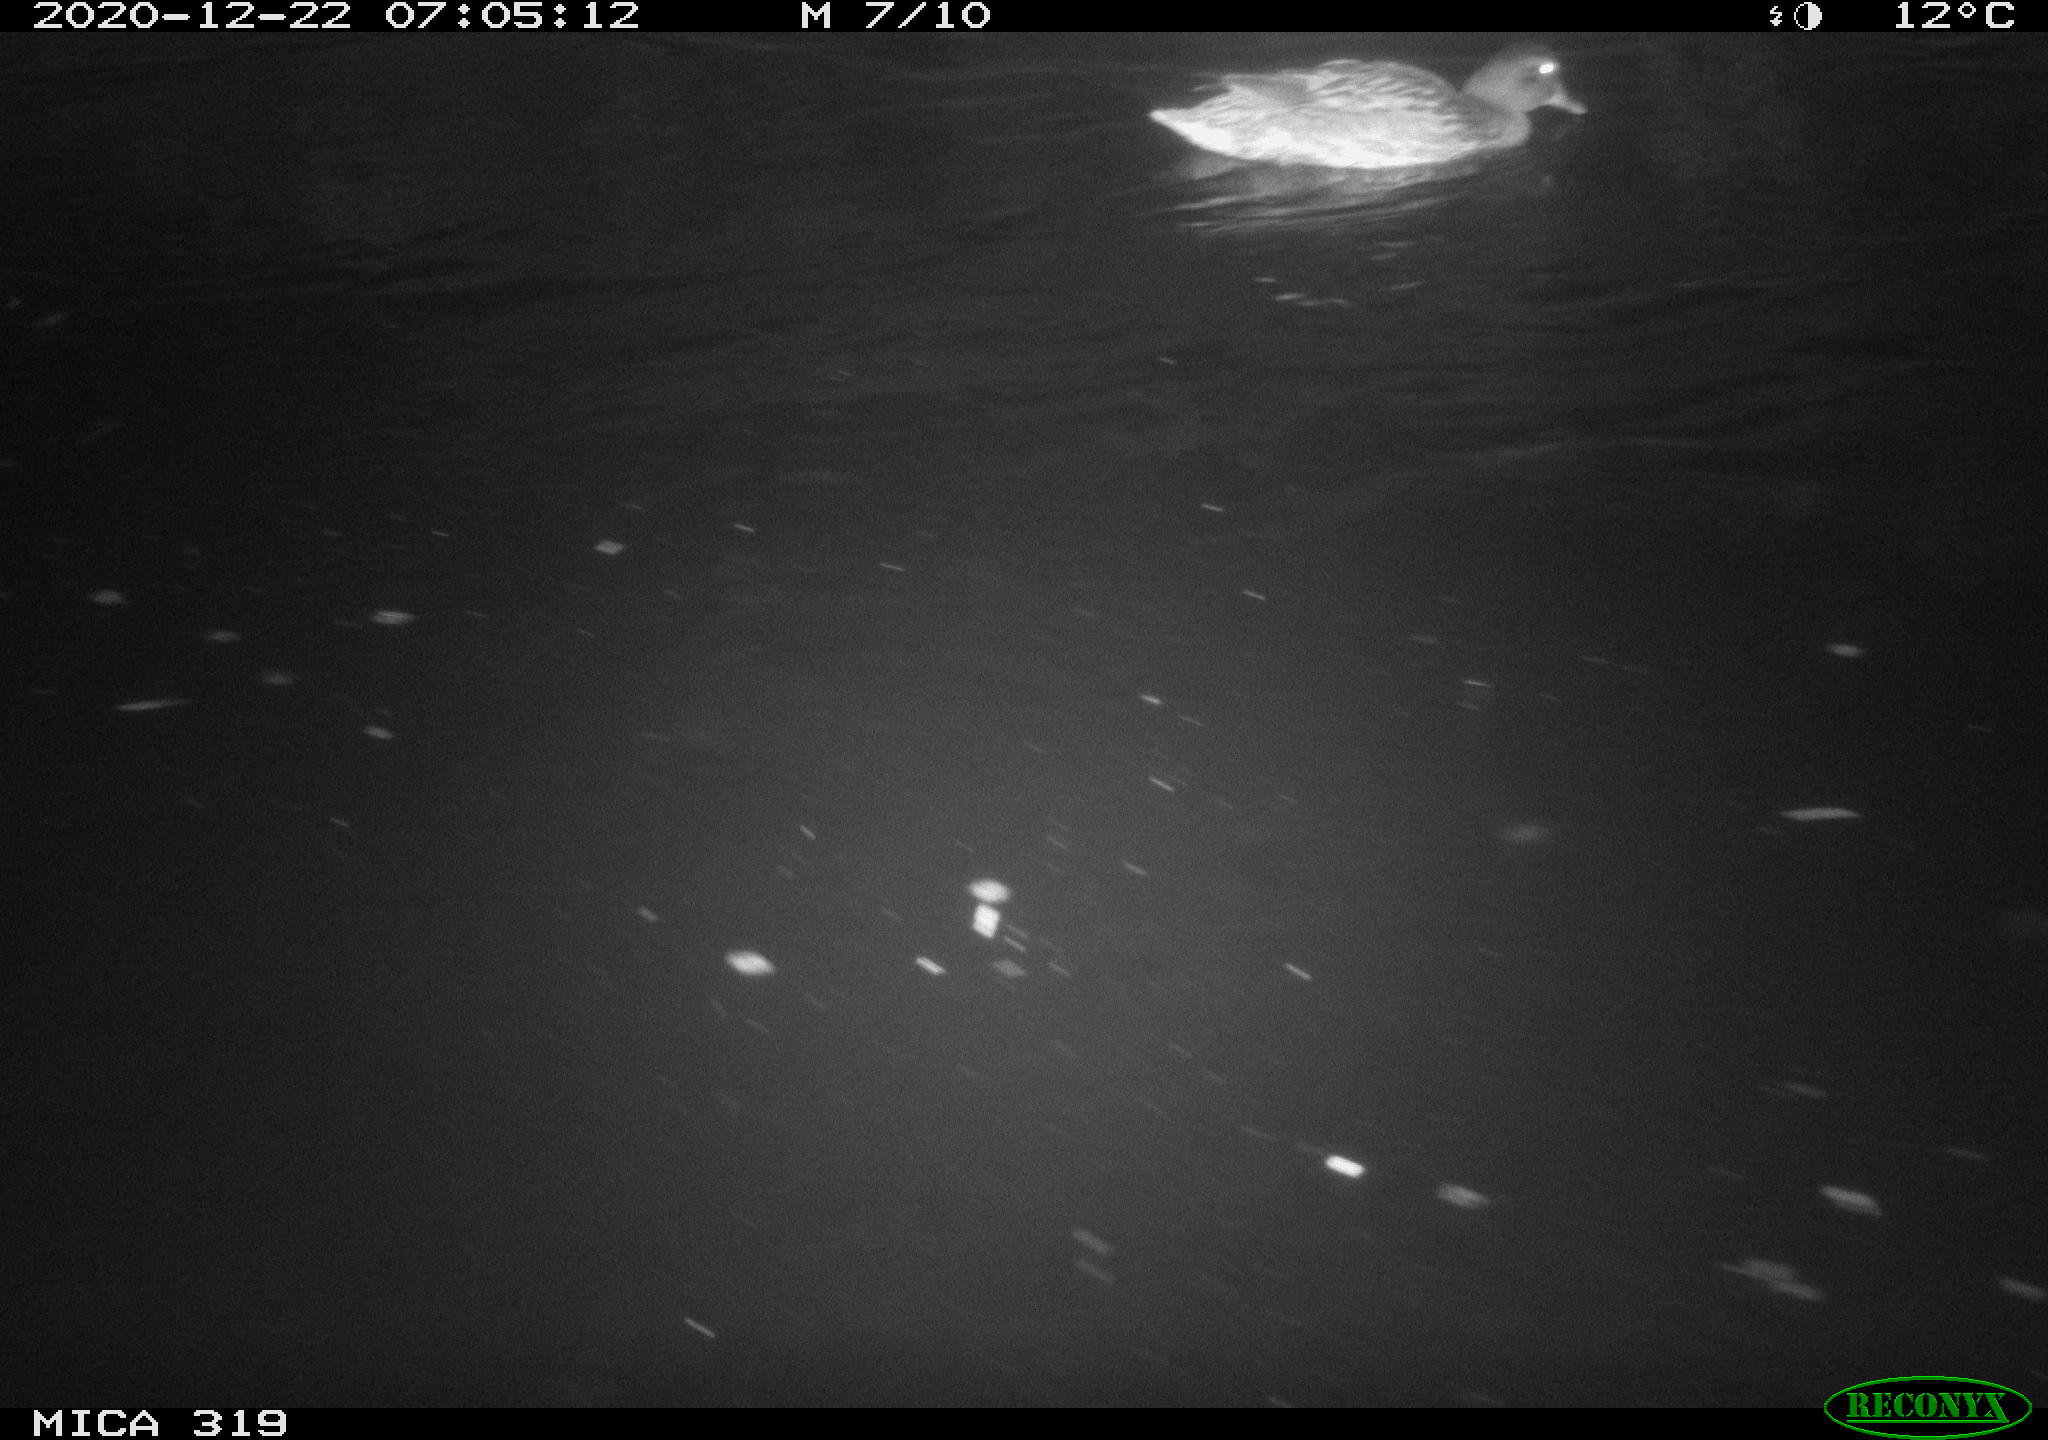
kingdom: Animalia
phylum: Chordata
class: Aves
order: Anseriformes
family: Anatidae
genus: Anas
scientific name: Anas platyrhynchos
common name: Mallard
